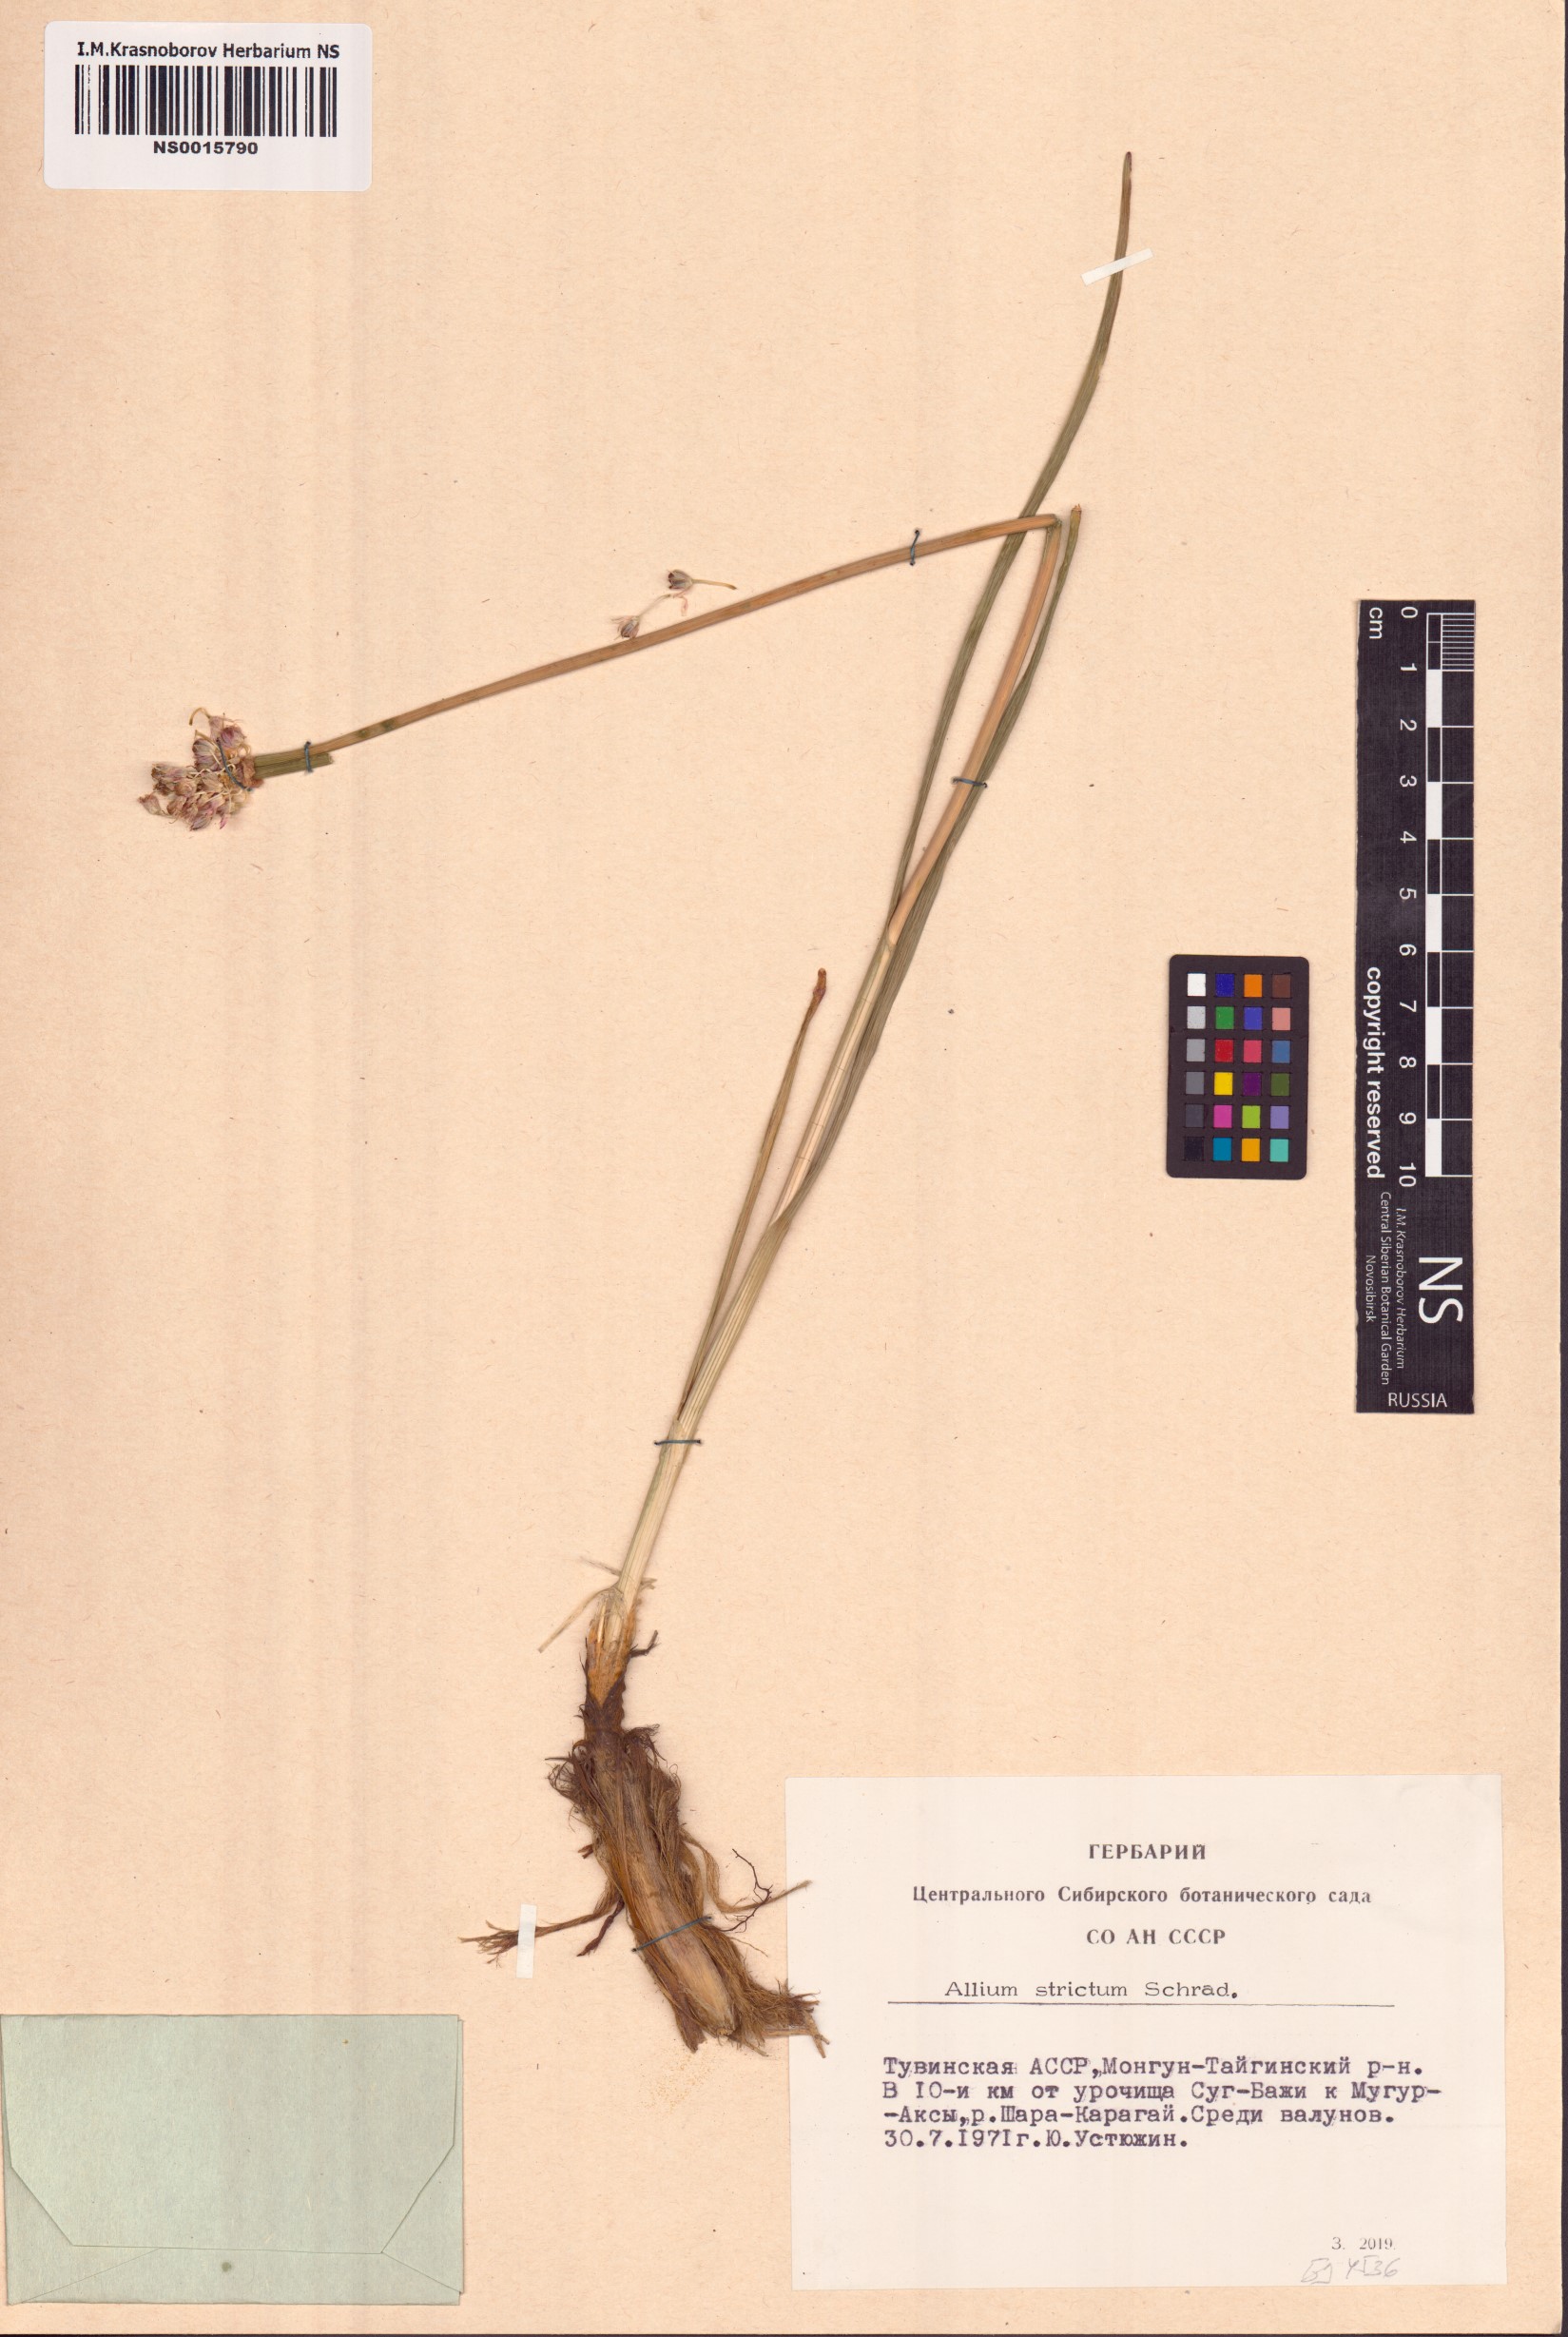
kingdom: Plantae
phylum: Tracheophyta
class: Liliopsida
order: Asparagales
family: Amaryllidaceae
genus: Allium
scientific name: Allium strictum
